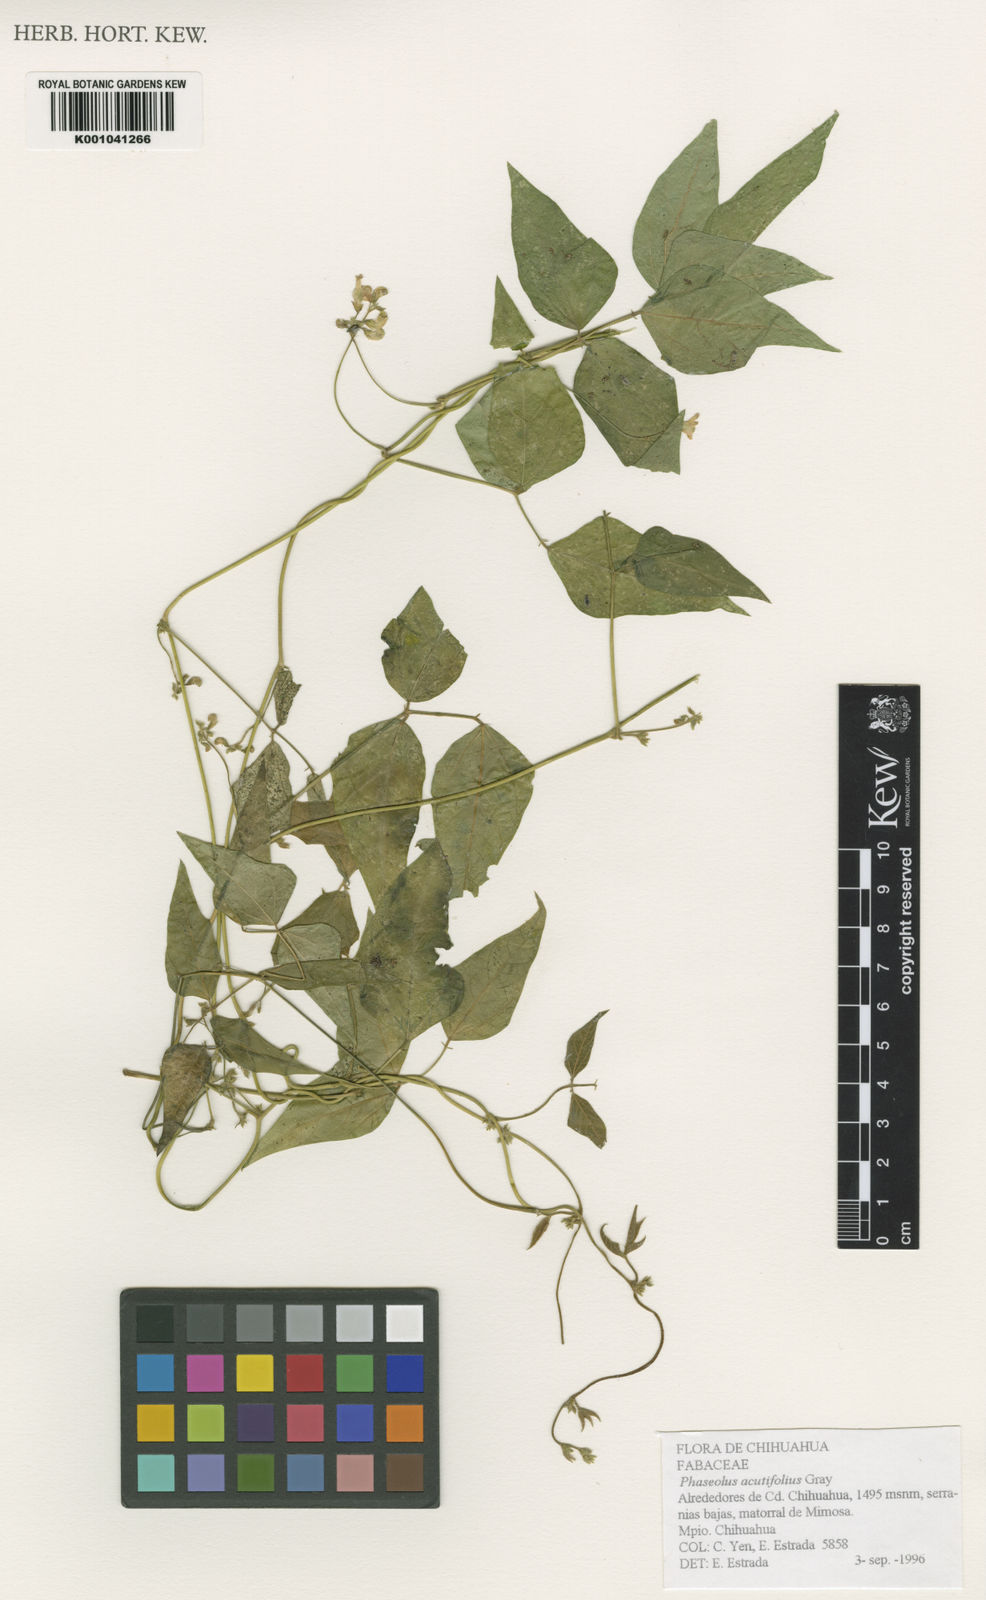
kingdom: Plantae
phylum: Tracheophyta
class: Magnoliopsida
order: Fabales
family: Fabaceae
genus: Phaseolus
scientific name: Phaseolus acutifolius
